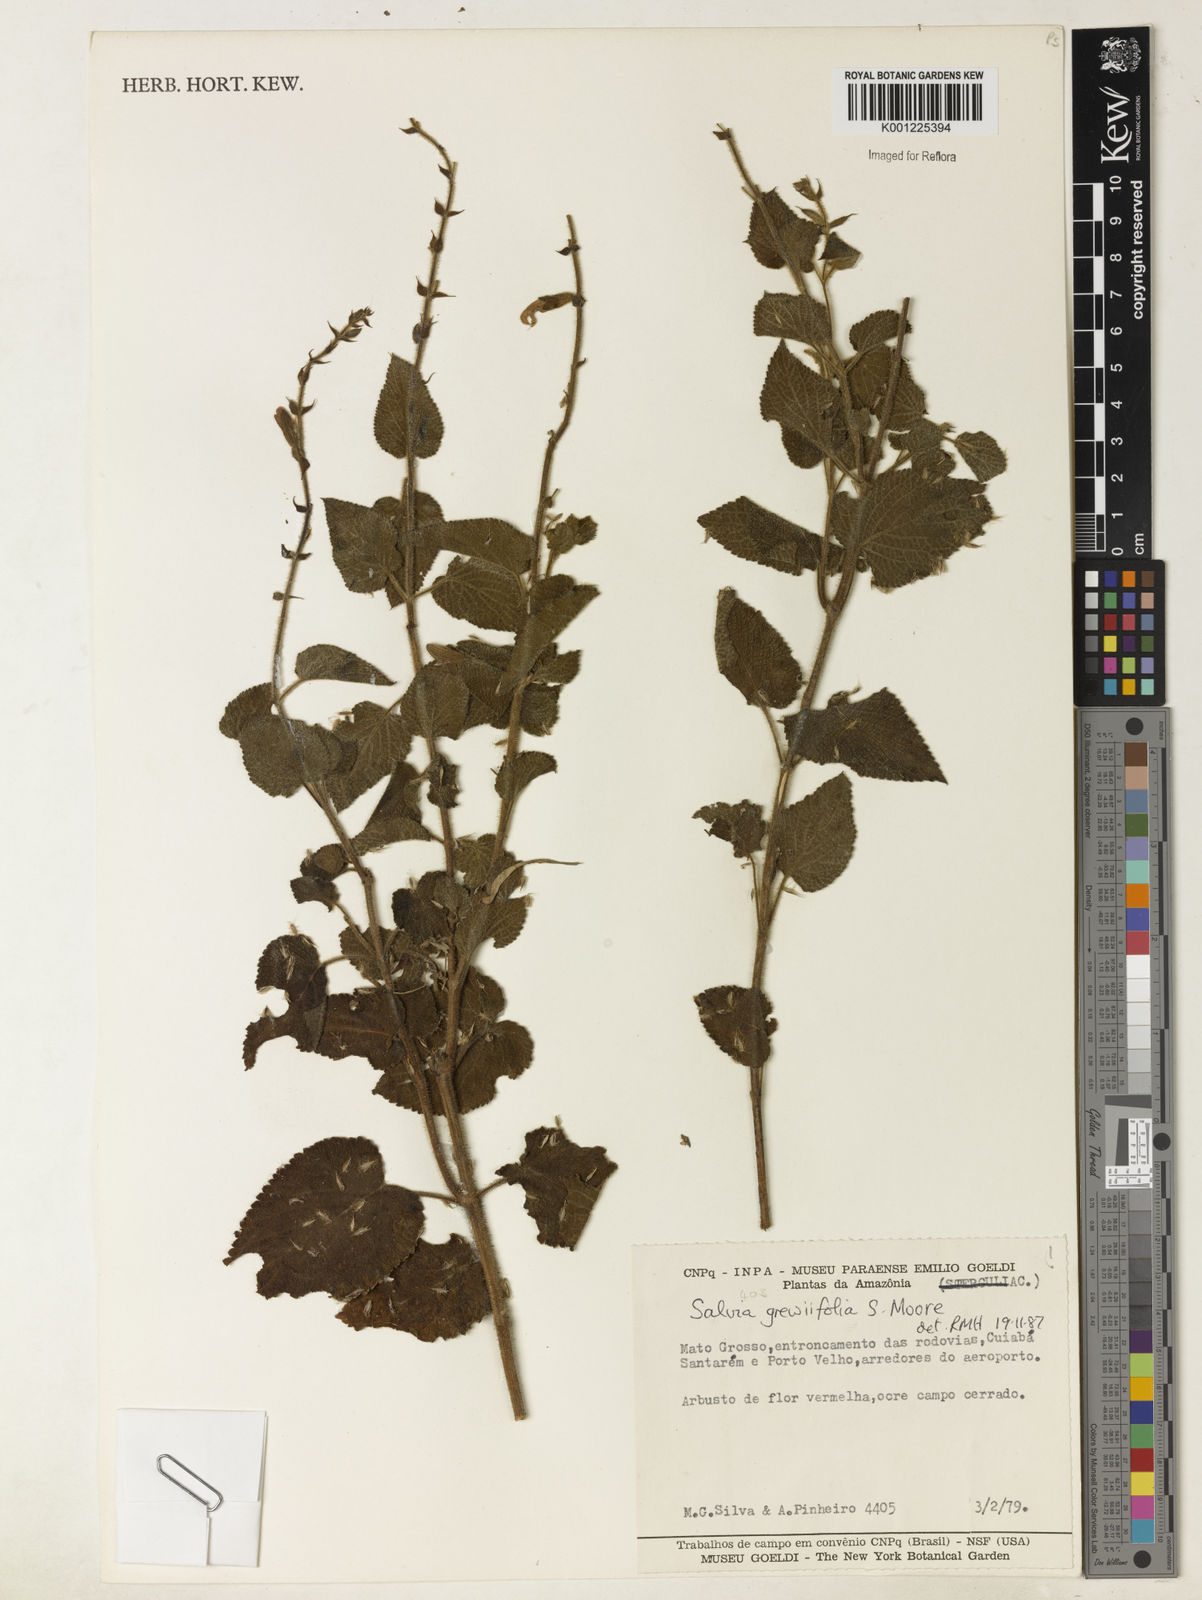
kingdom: Plantae
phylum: Tracheophyta
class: Magnoliopsida
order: Lamiales
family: Lamiaceae
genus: Salvia
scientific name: Salvia grewiifolia
